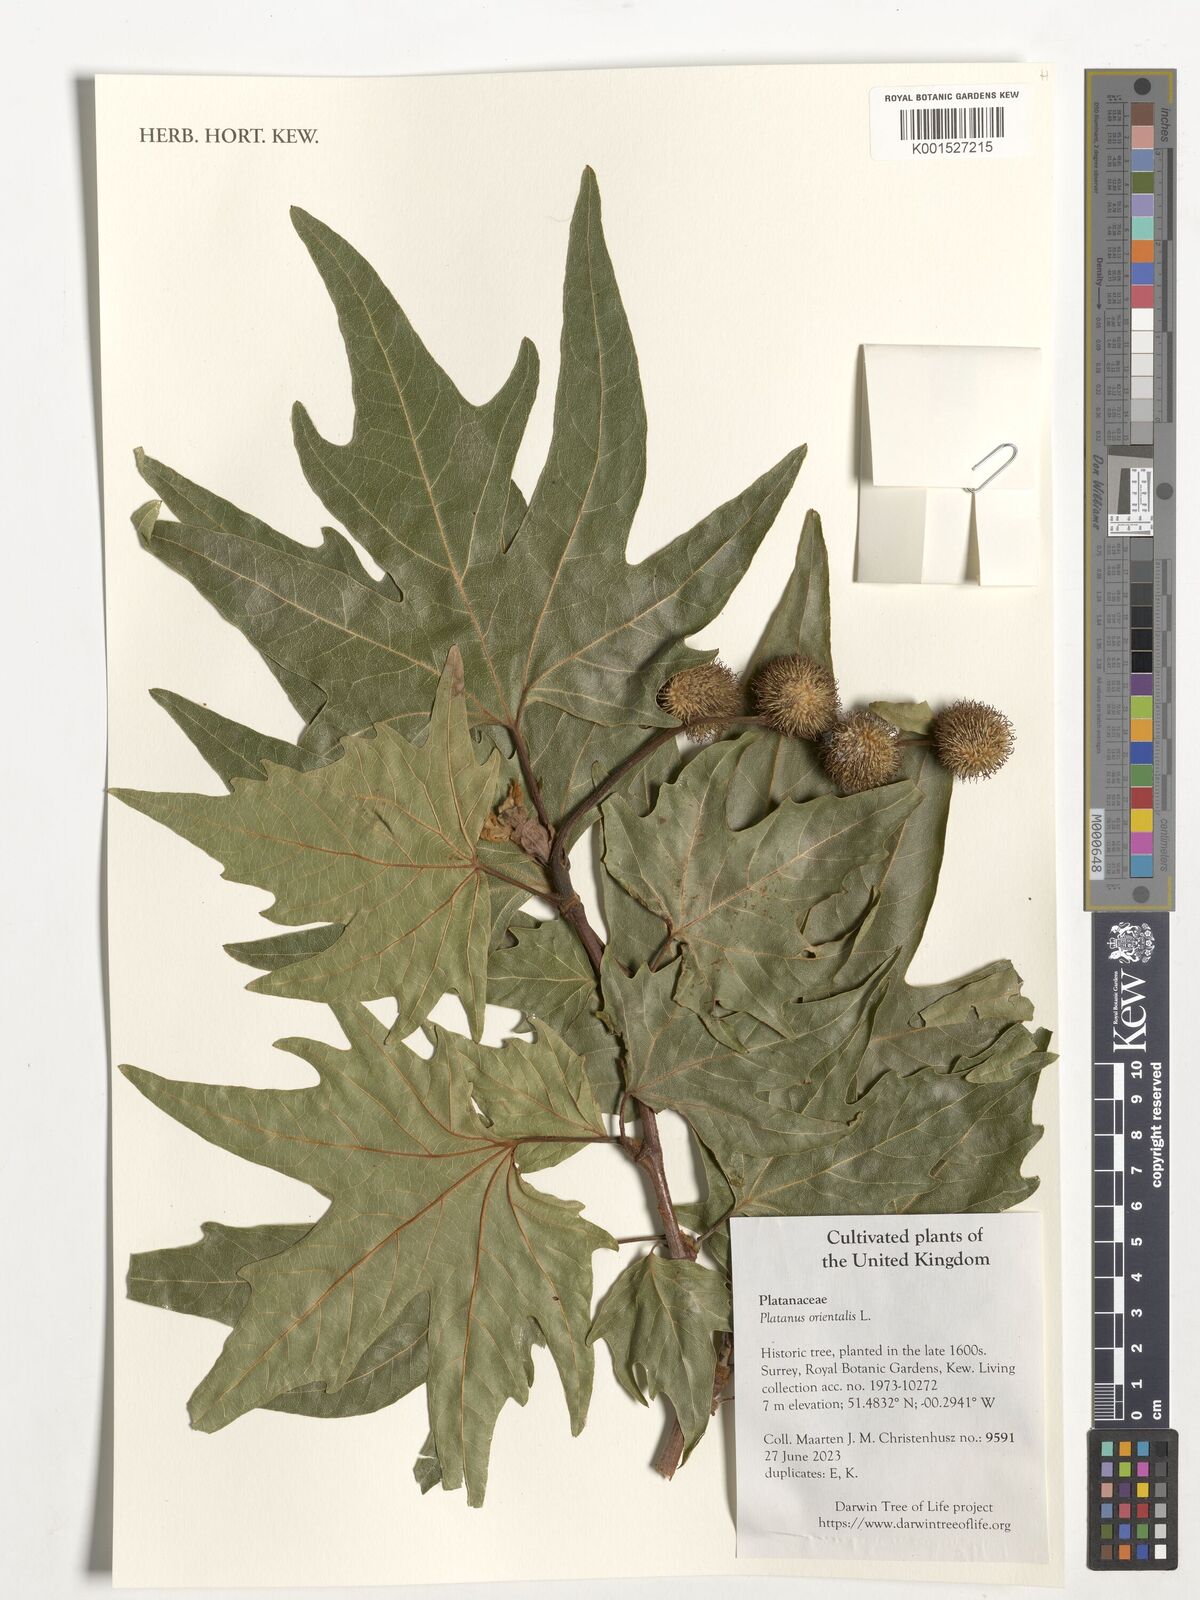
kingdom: Plantae
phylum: Tracheophyta
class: Magnoliopsida
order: Proteales
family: Platanaceae
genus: Platanus
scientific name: Platanus orientalis
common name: Oriental plane
